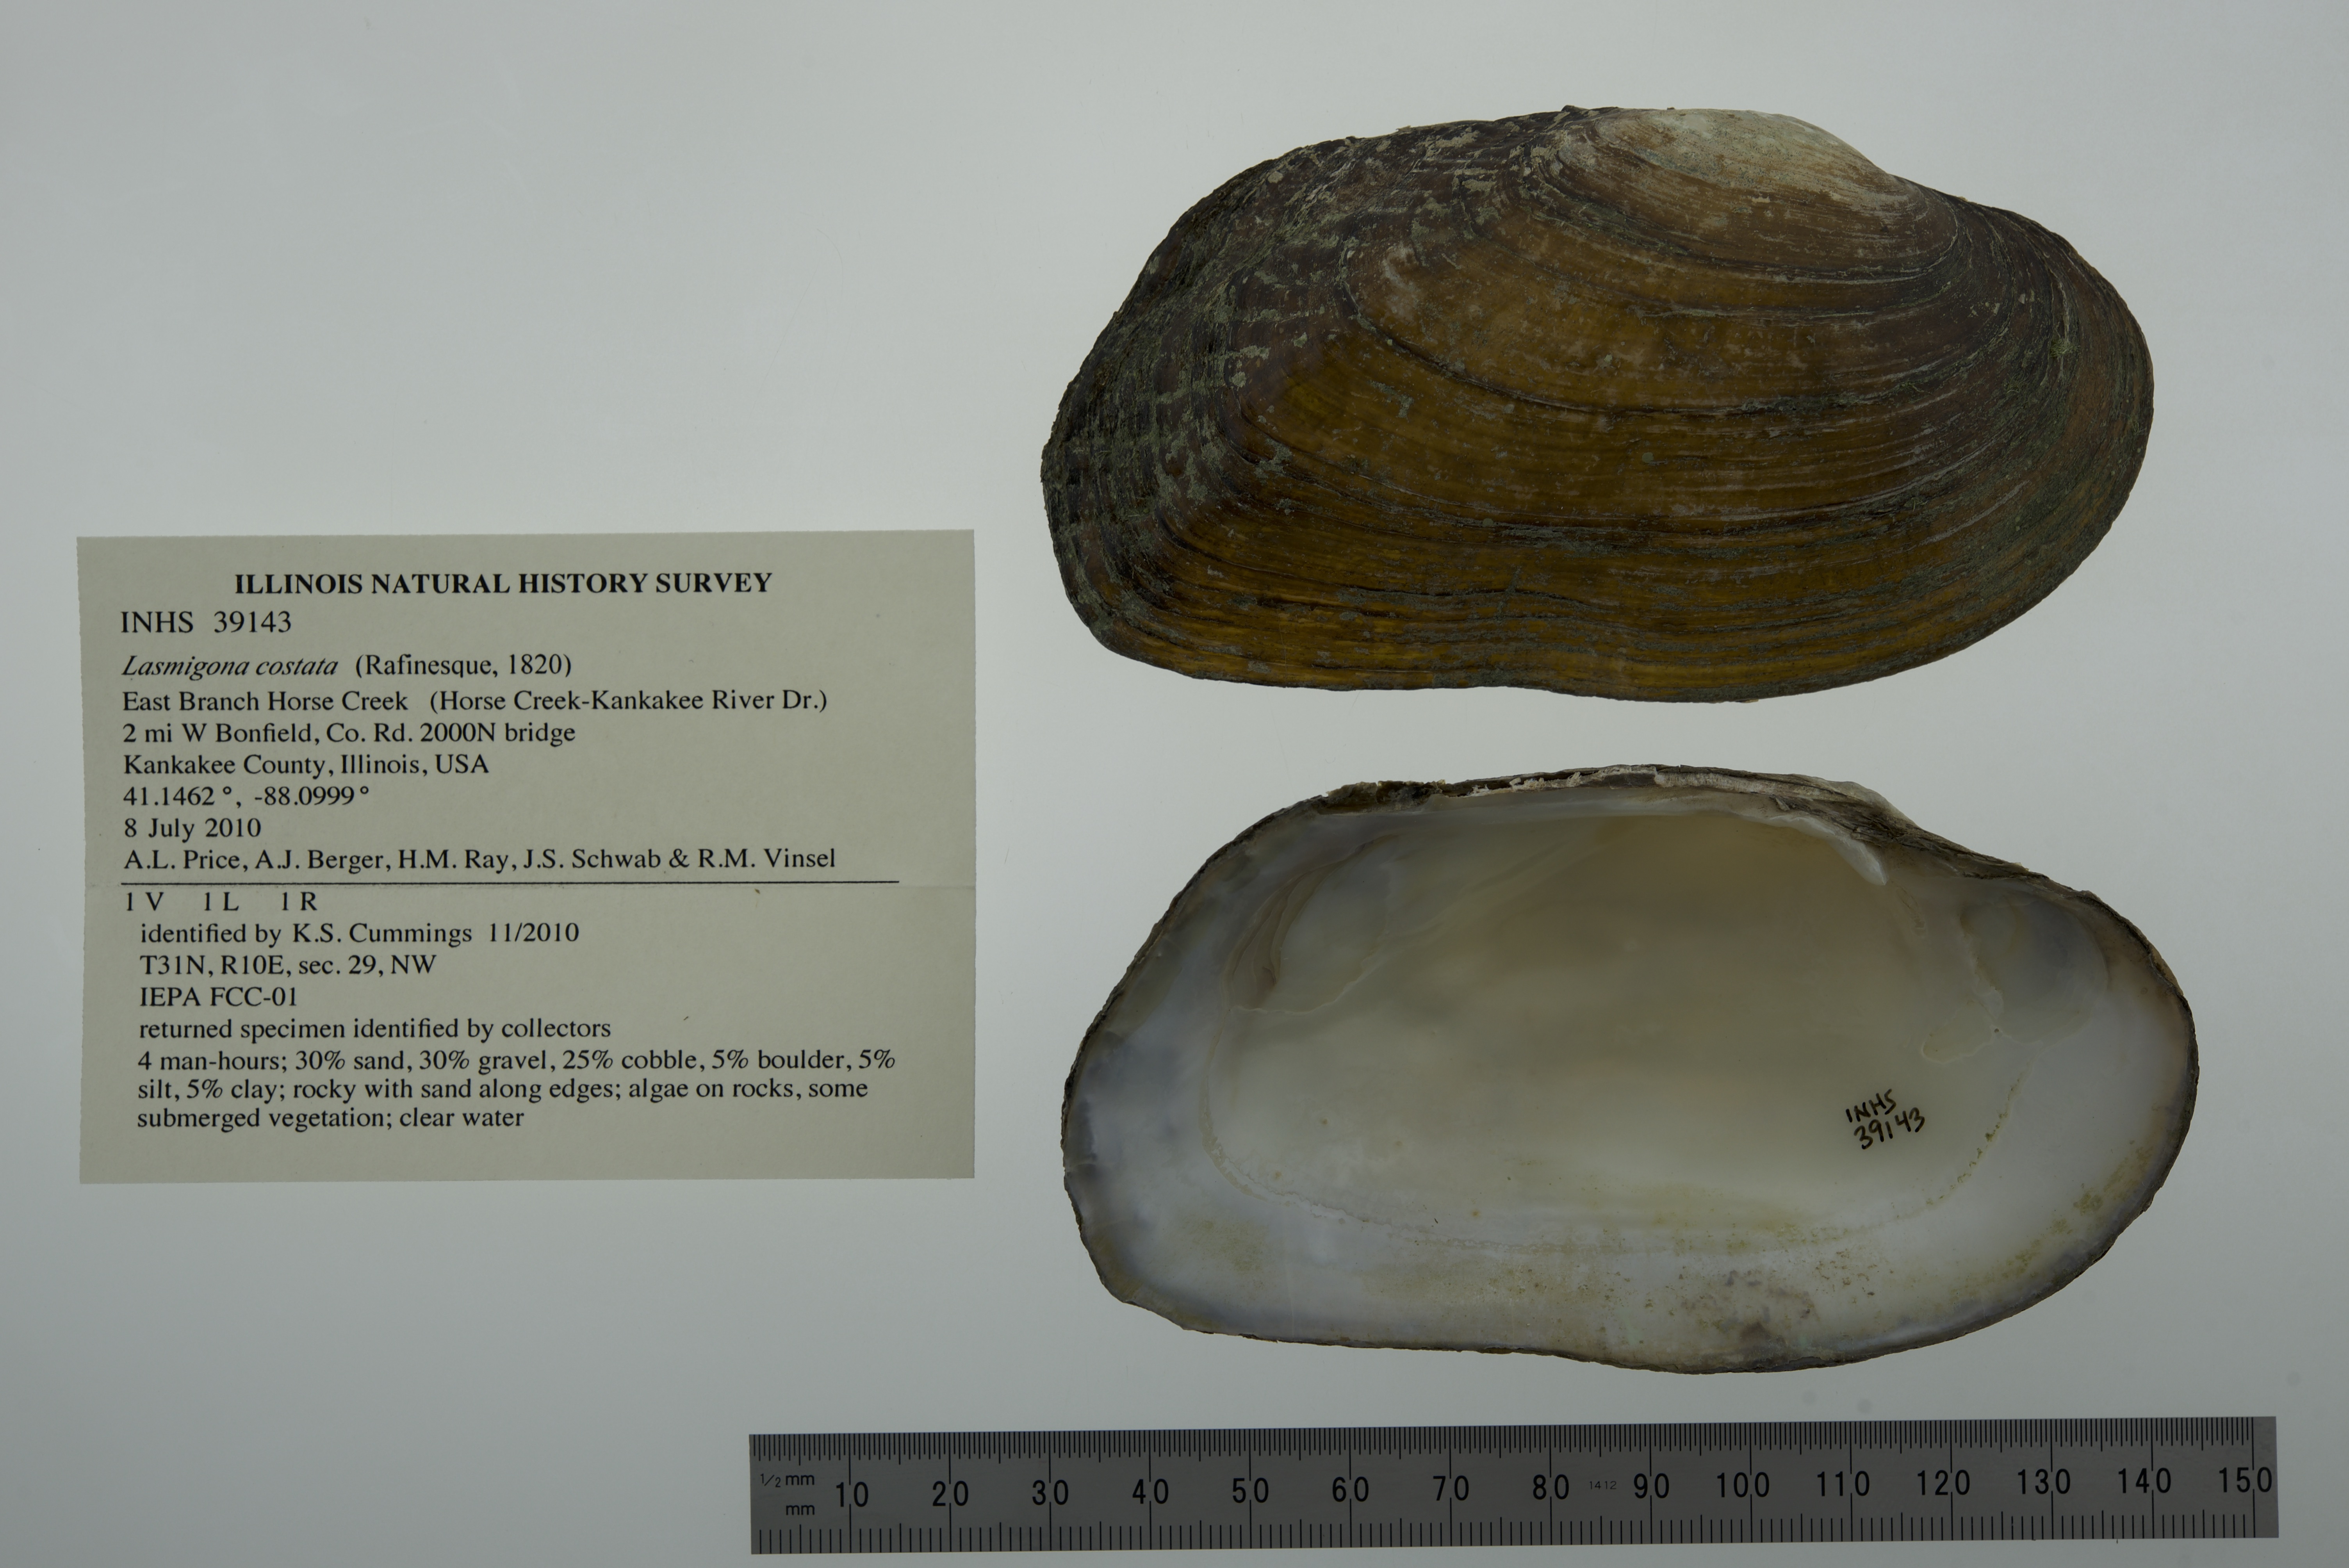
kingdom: Animalia
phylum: Mollusca
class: Bivalvia
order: Unionida
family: Unionidae
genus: Lasmigona
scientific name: Lasmigona costata
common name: Flutedshell
